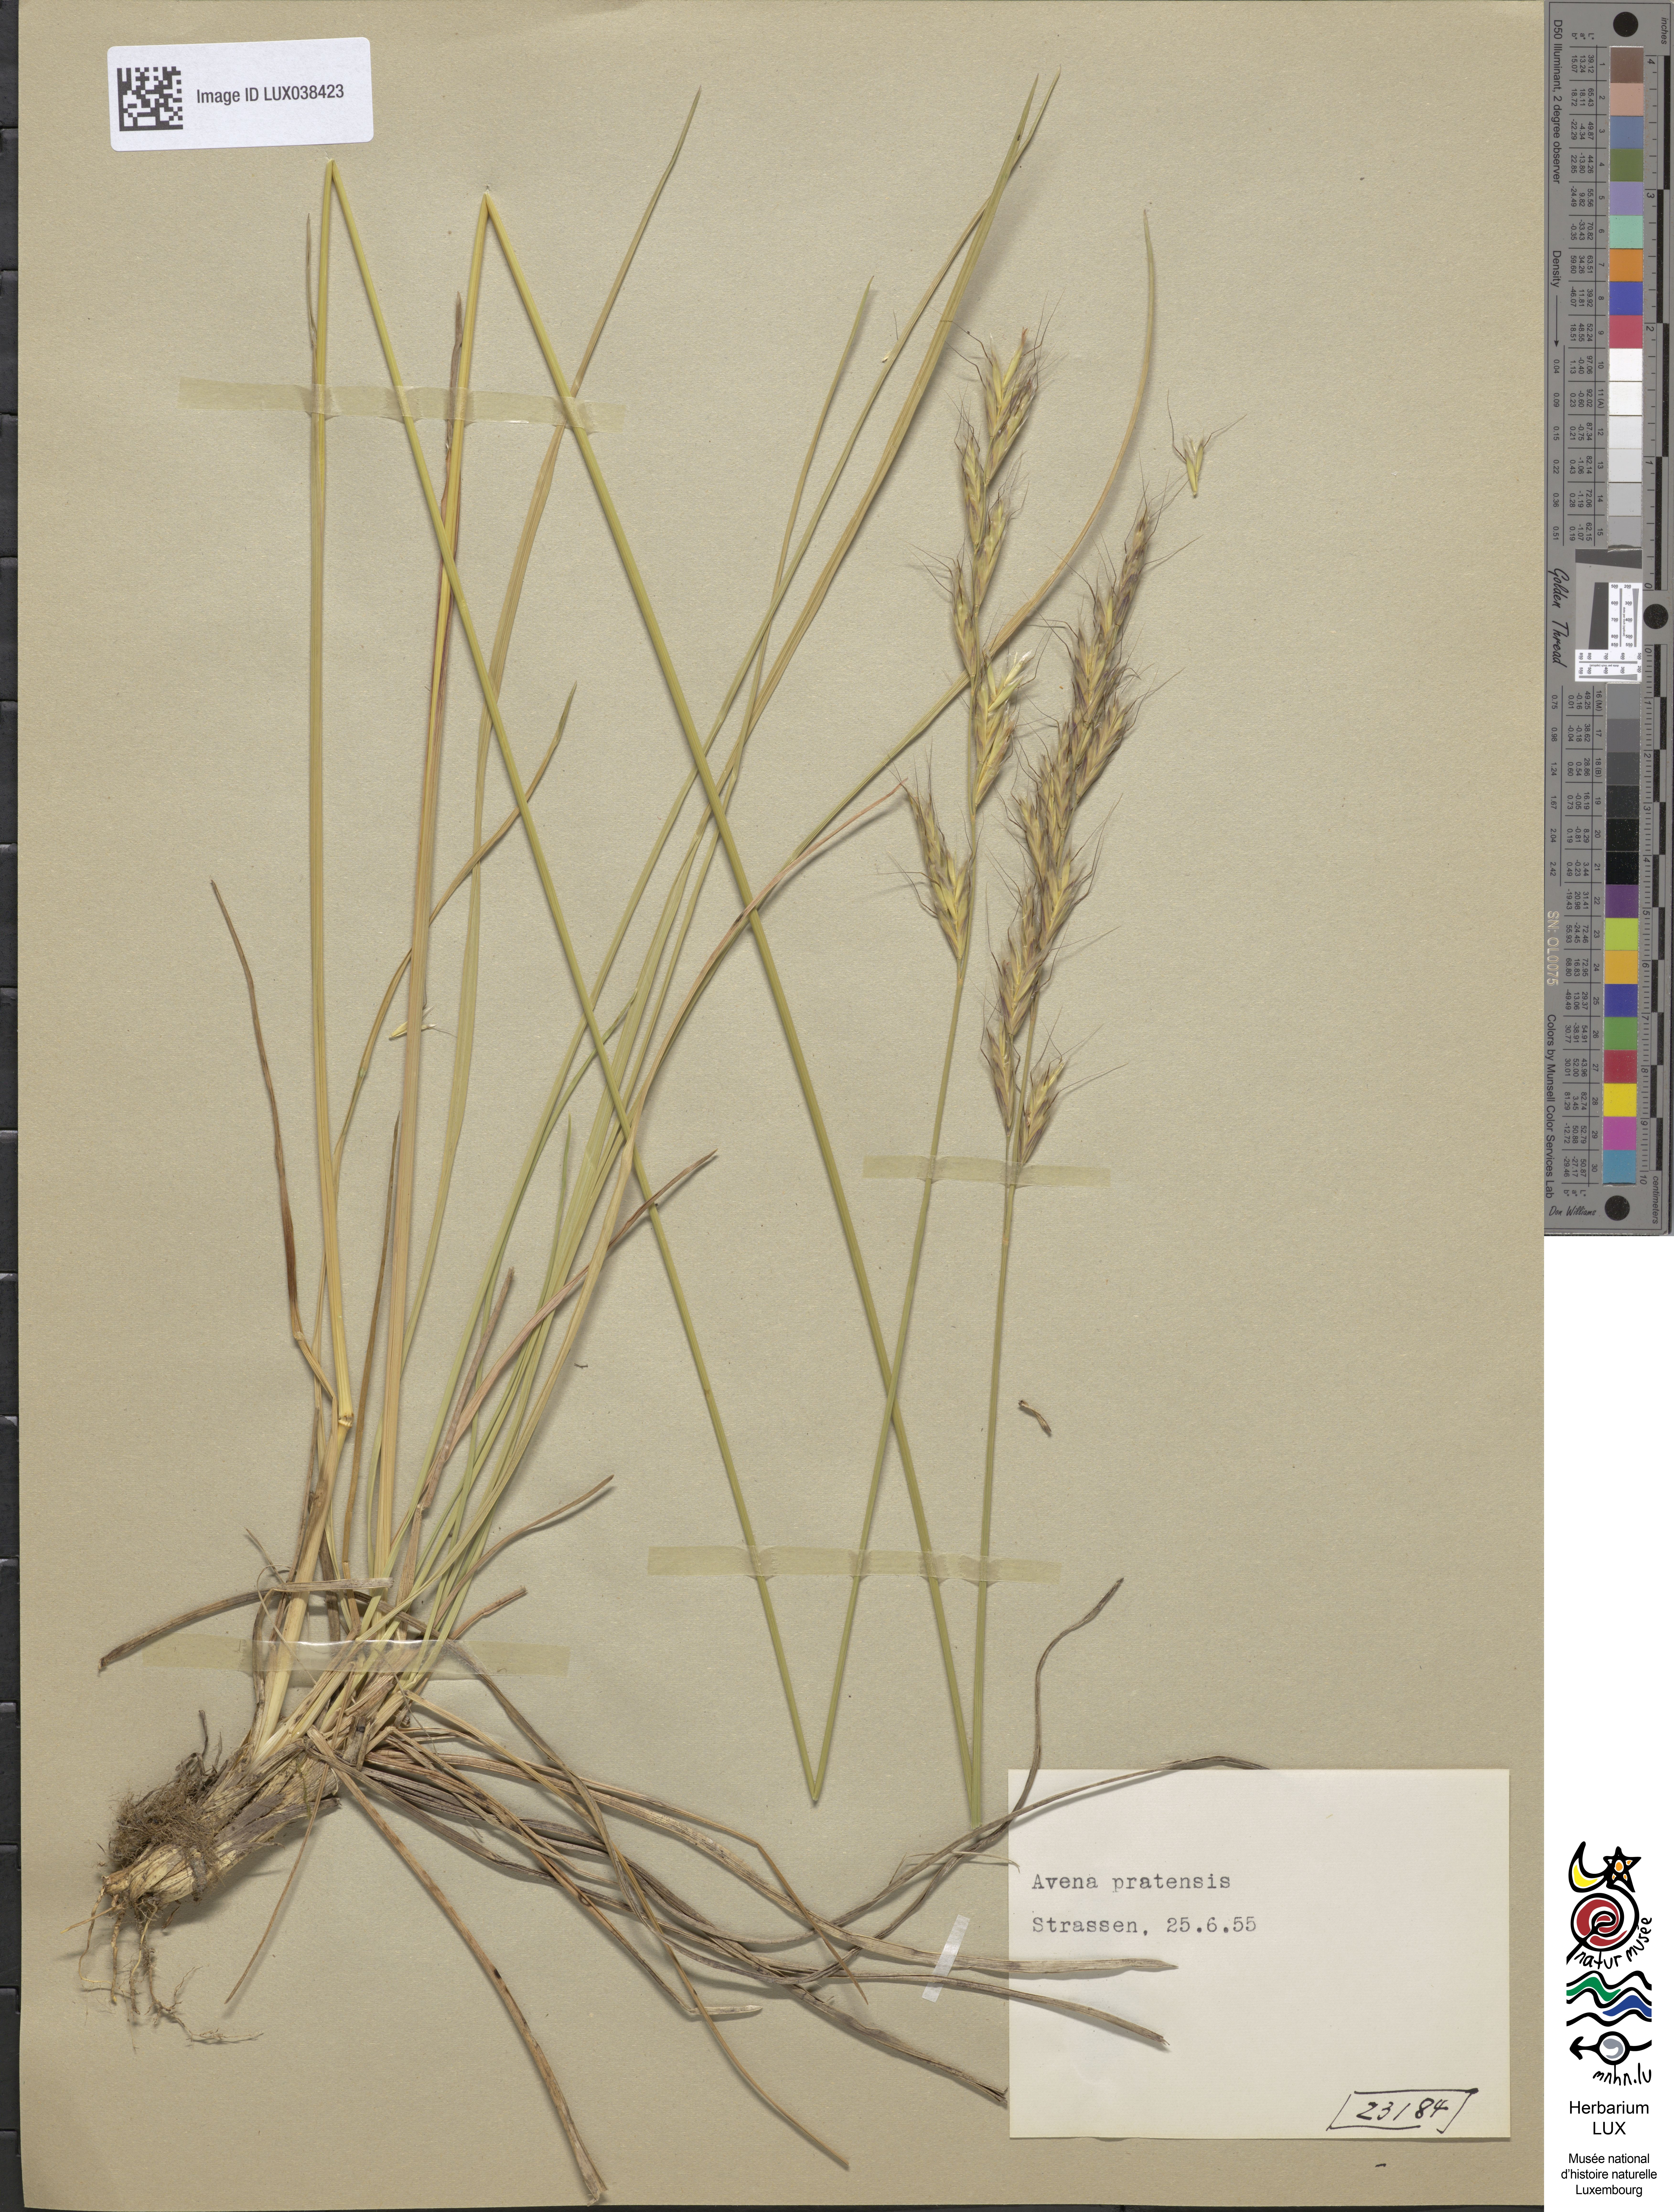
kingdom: Plantae
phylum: Tracheophyta
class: Liliopsida
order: Poales
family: Poaceae
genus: Helictochloa
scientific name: Helictochloa pratensis
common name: Meadow oat grass
